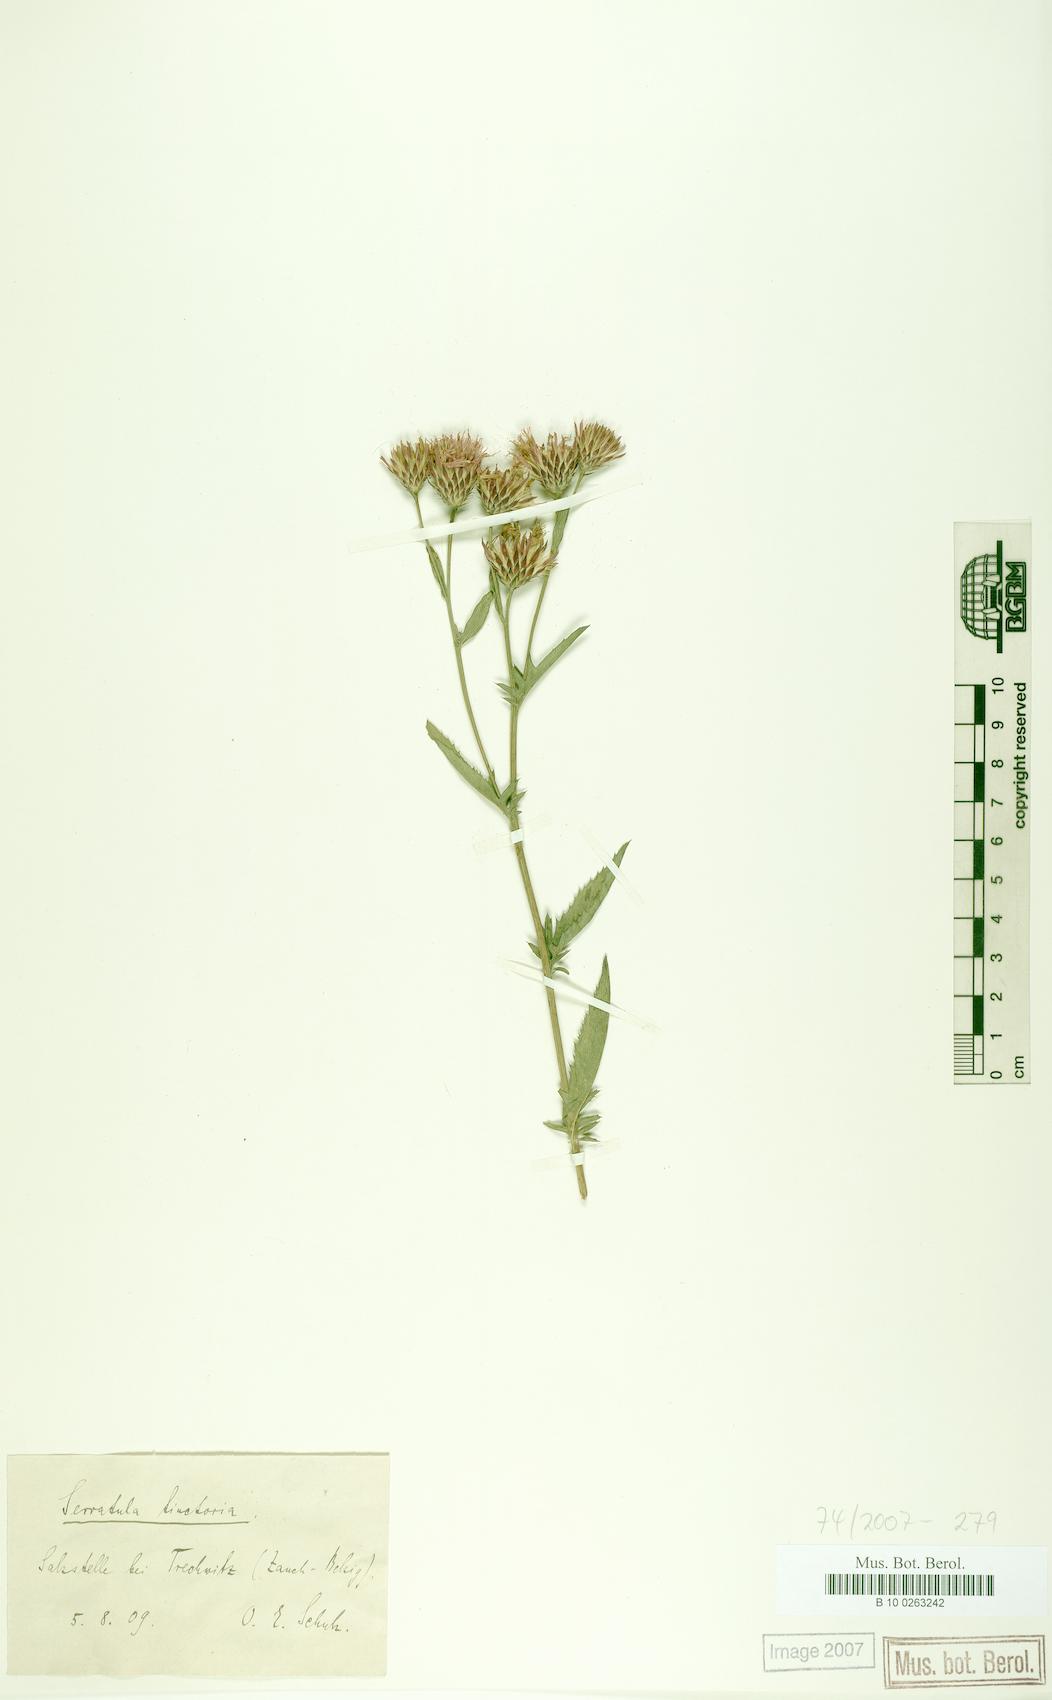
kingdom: Plantae
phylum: Tracheophyta
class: Magnoliopsida
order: Asterales
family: Asteraceae
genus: Serratula
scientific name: Serratula tinctoria
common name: Saw-wort
